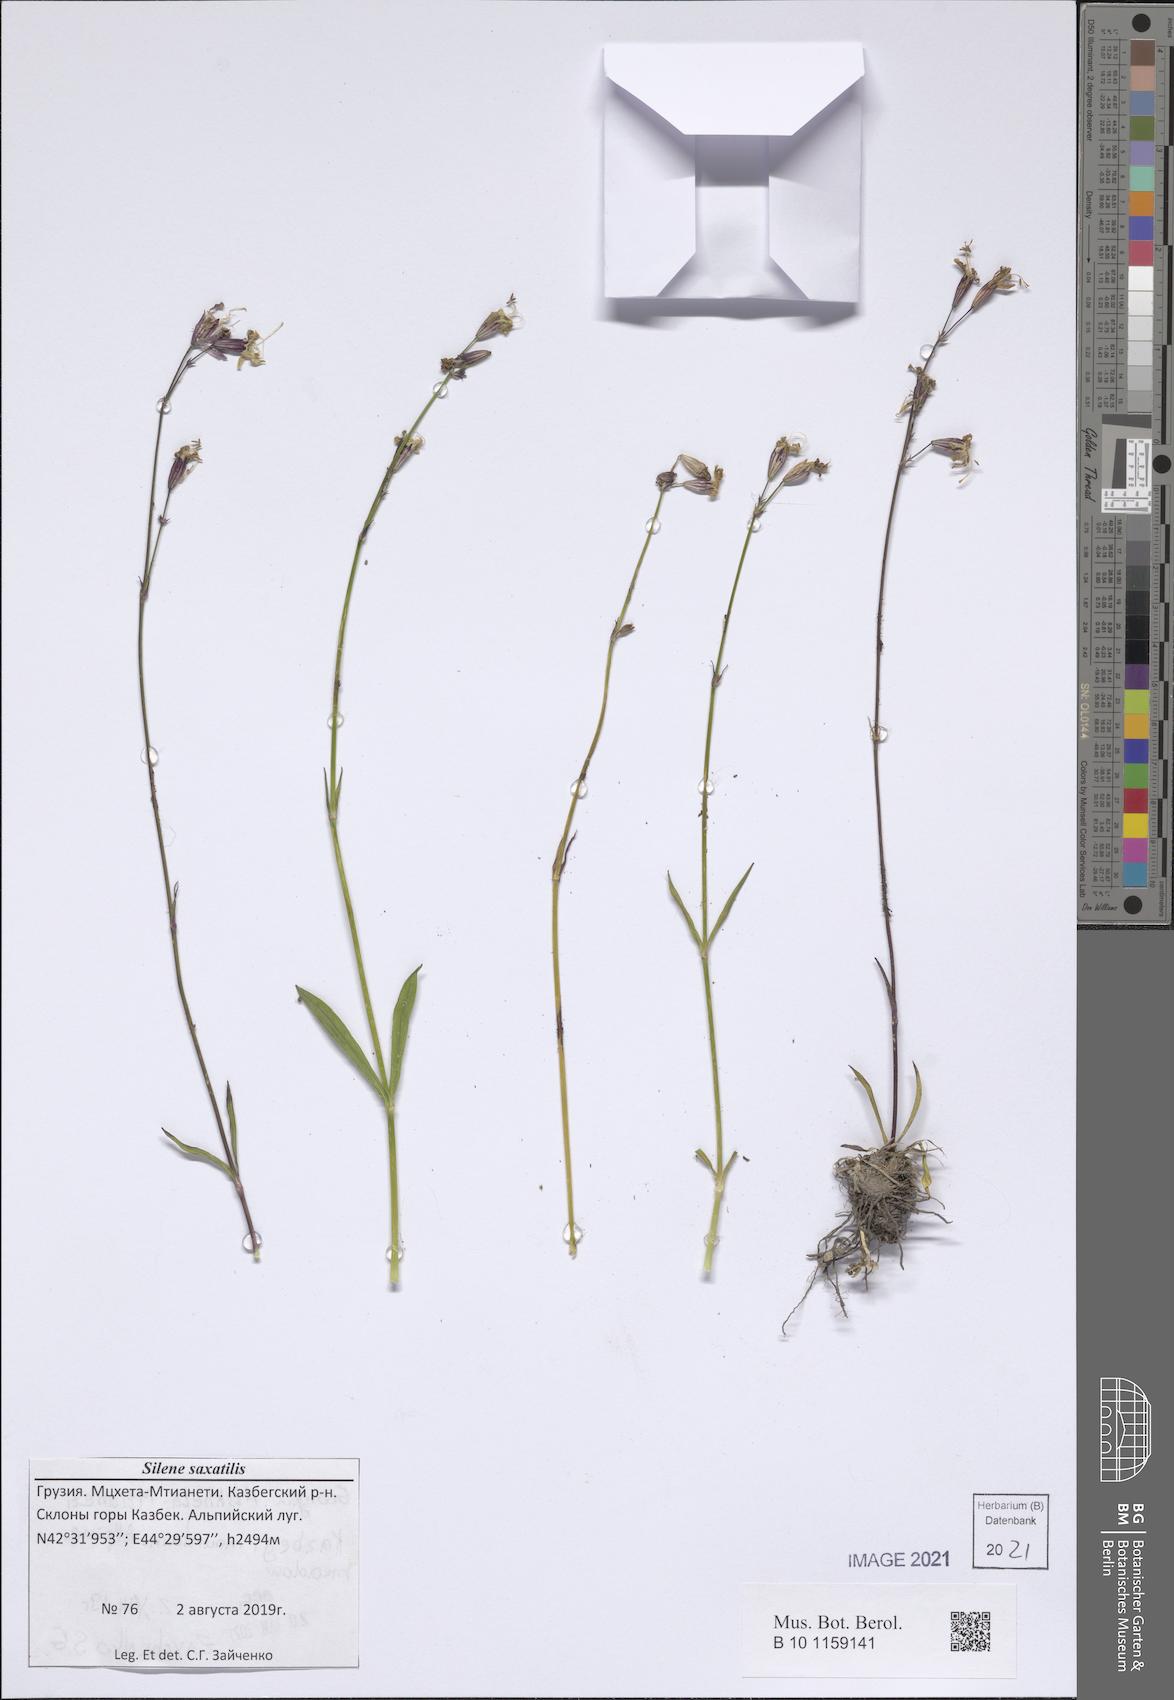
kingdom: Plantae
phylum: Tracheophyta
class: Magnoliopsida
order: Caryophyllales
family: Caryophyllaceae
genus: Silene
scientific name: Silene saxatilis
